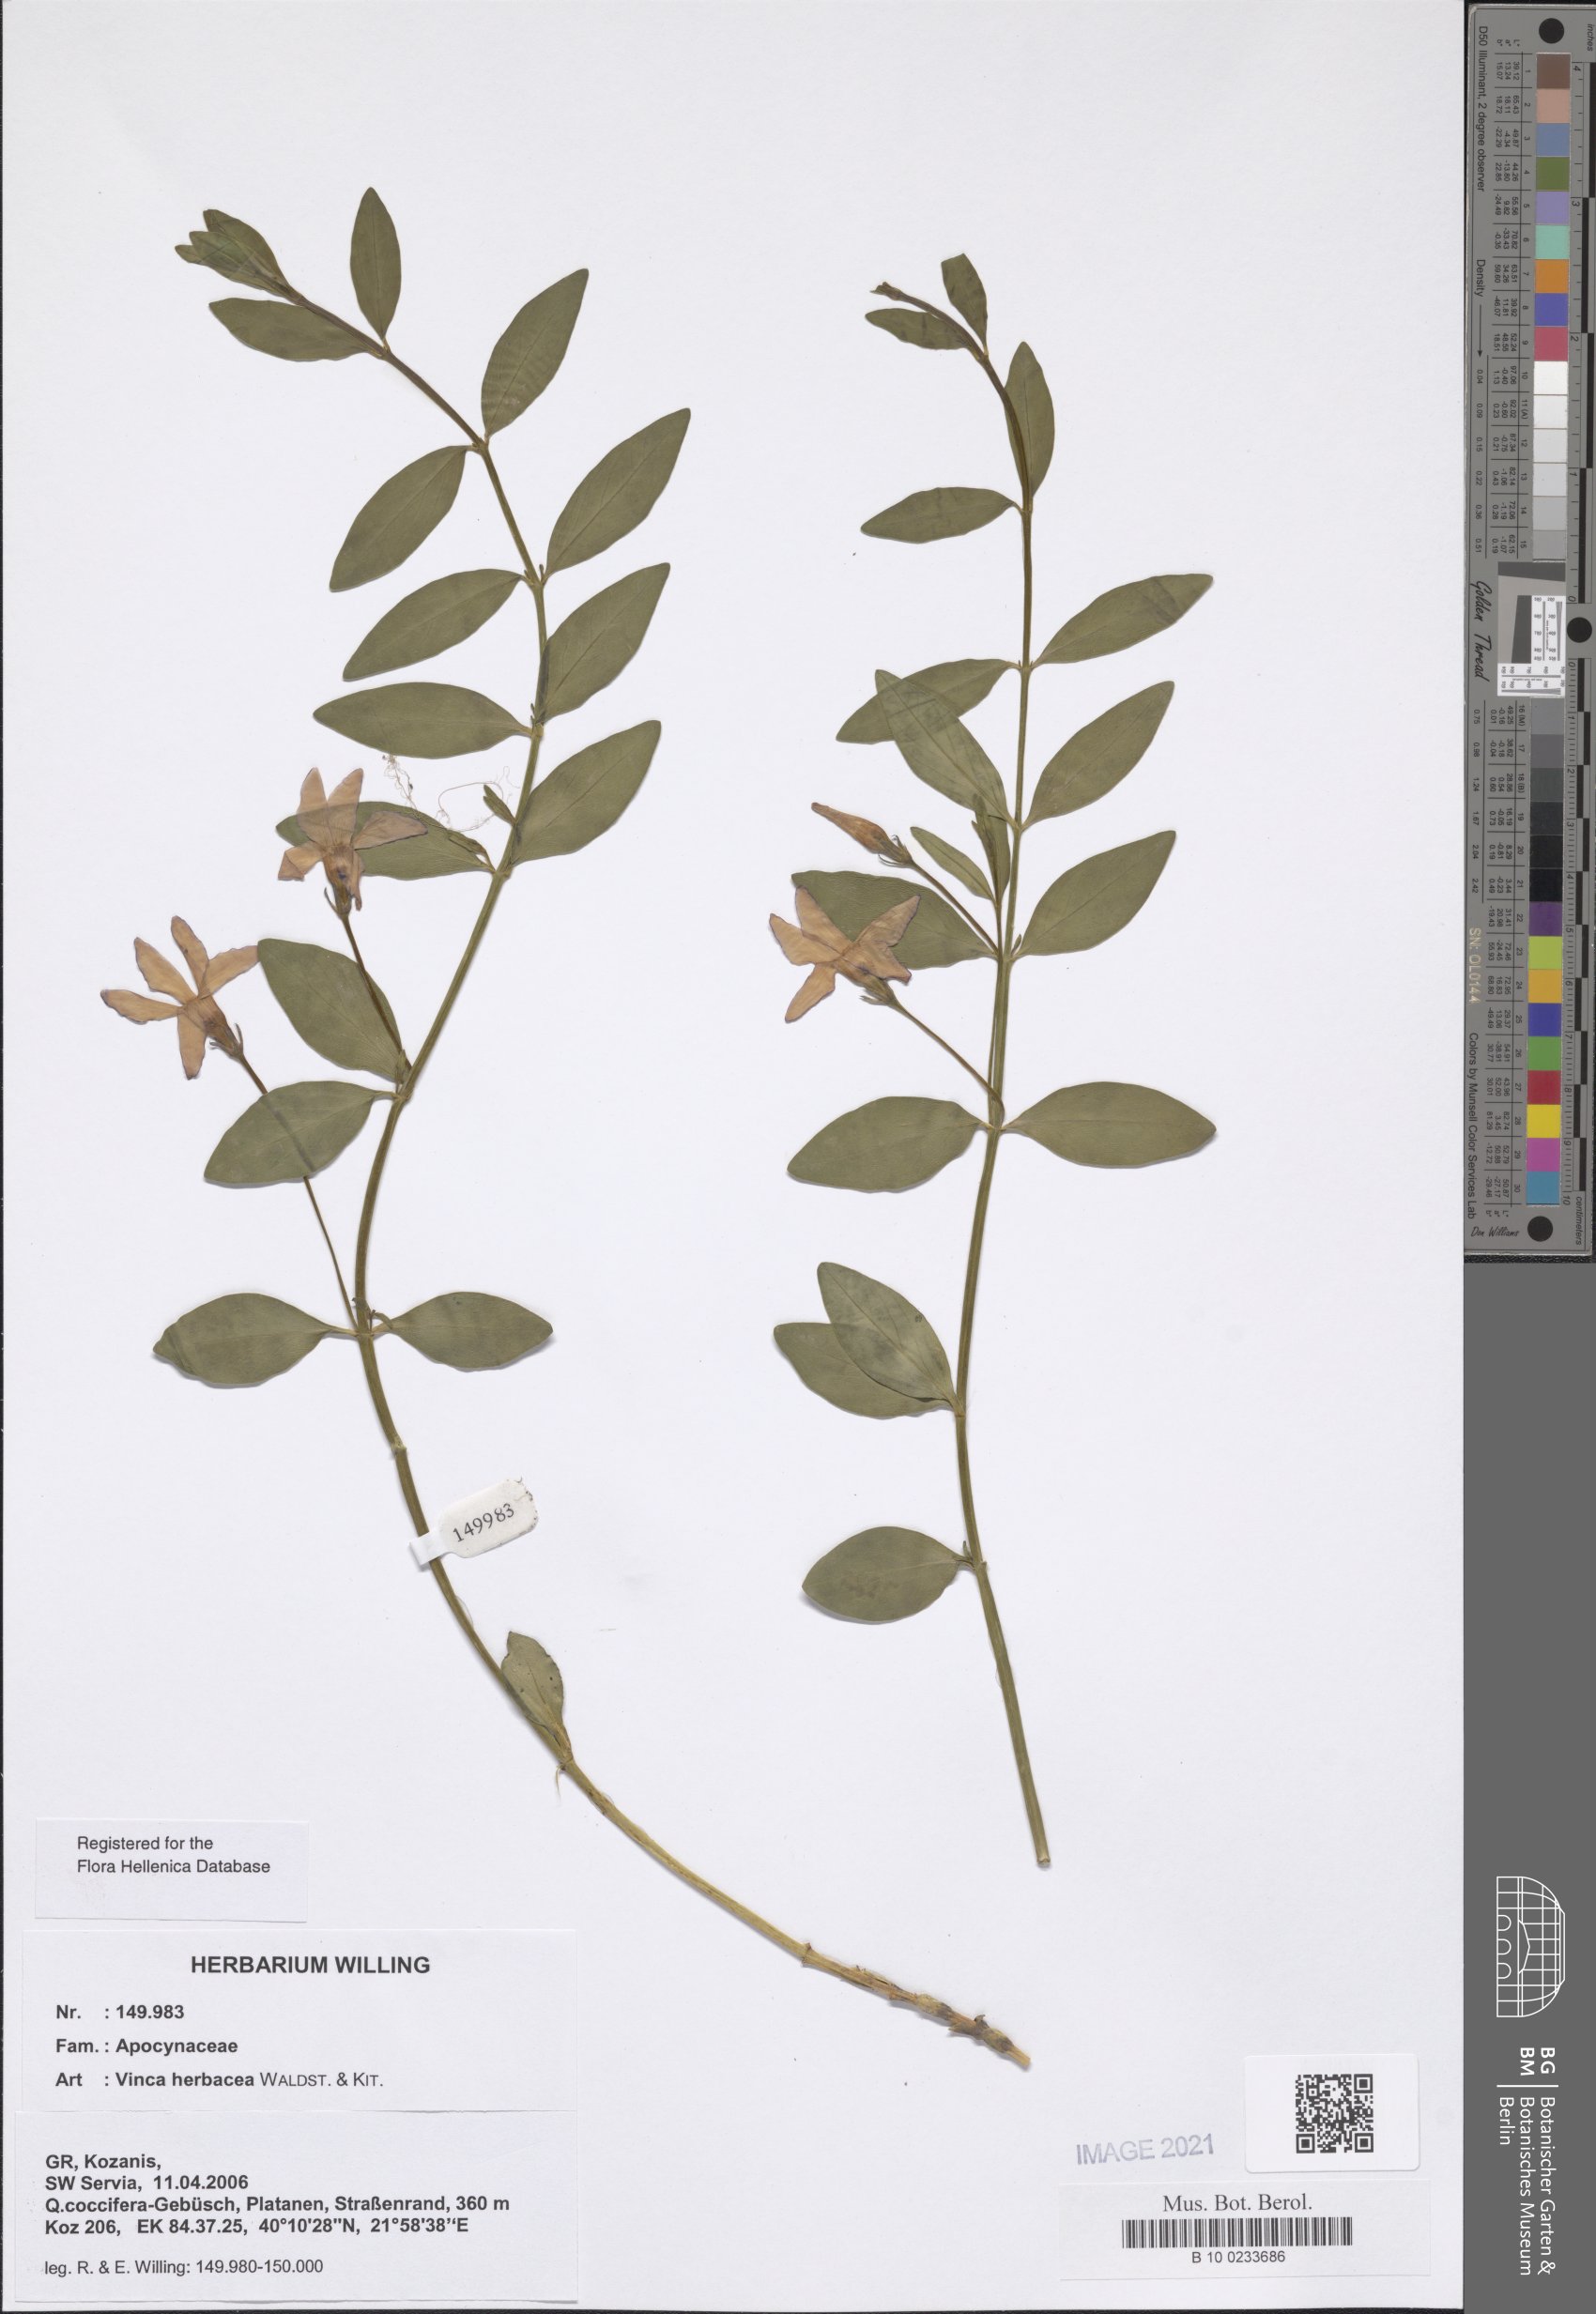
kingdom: Plantae
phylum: Tracheophyta
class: Magnoliopsida
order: Gentianales
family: Apocynaceae
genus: Vinca
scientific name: Vinca herbacea
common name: Herbaceous periwinkle
